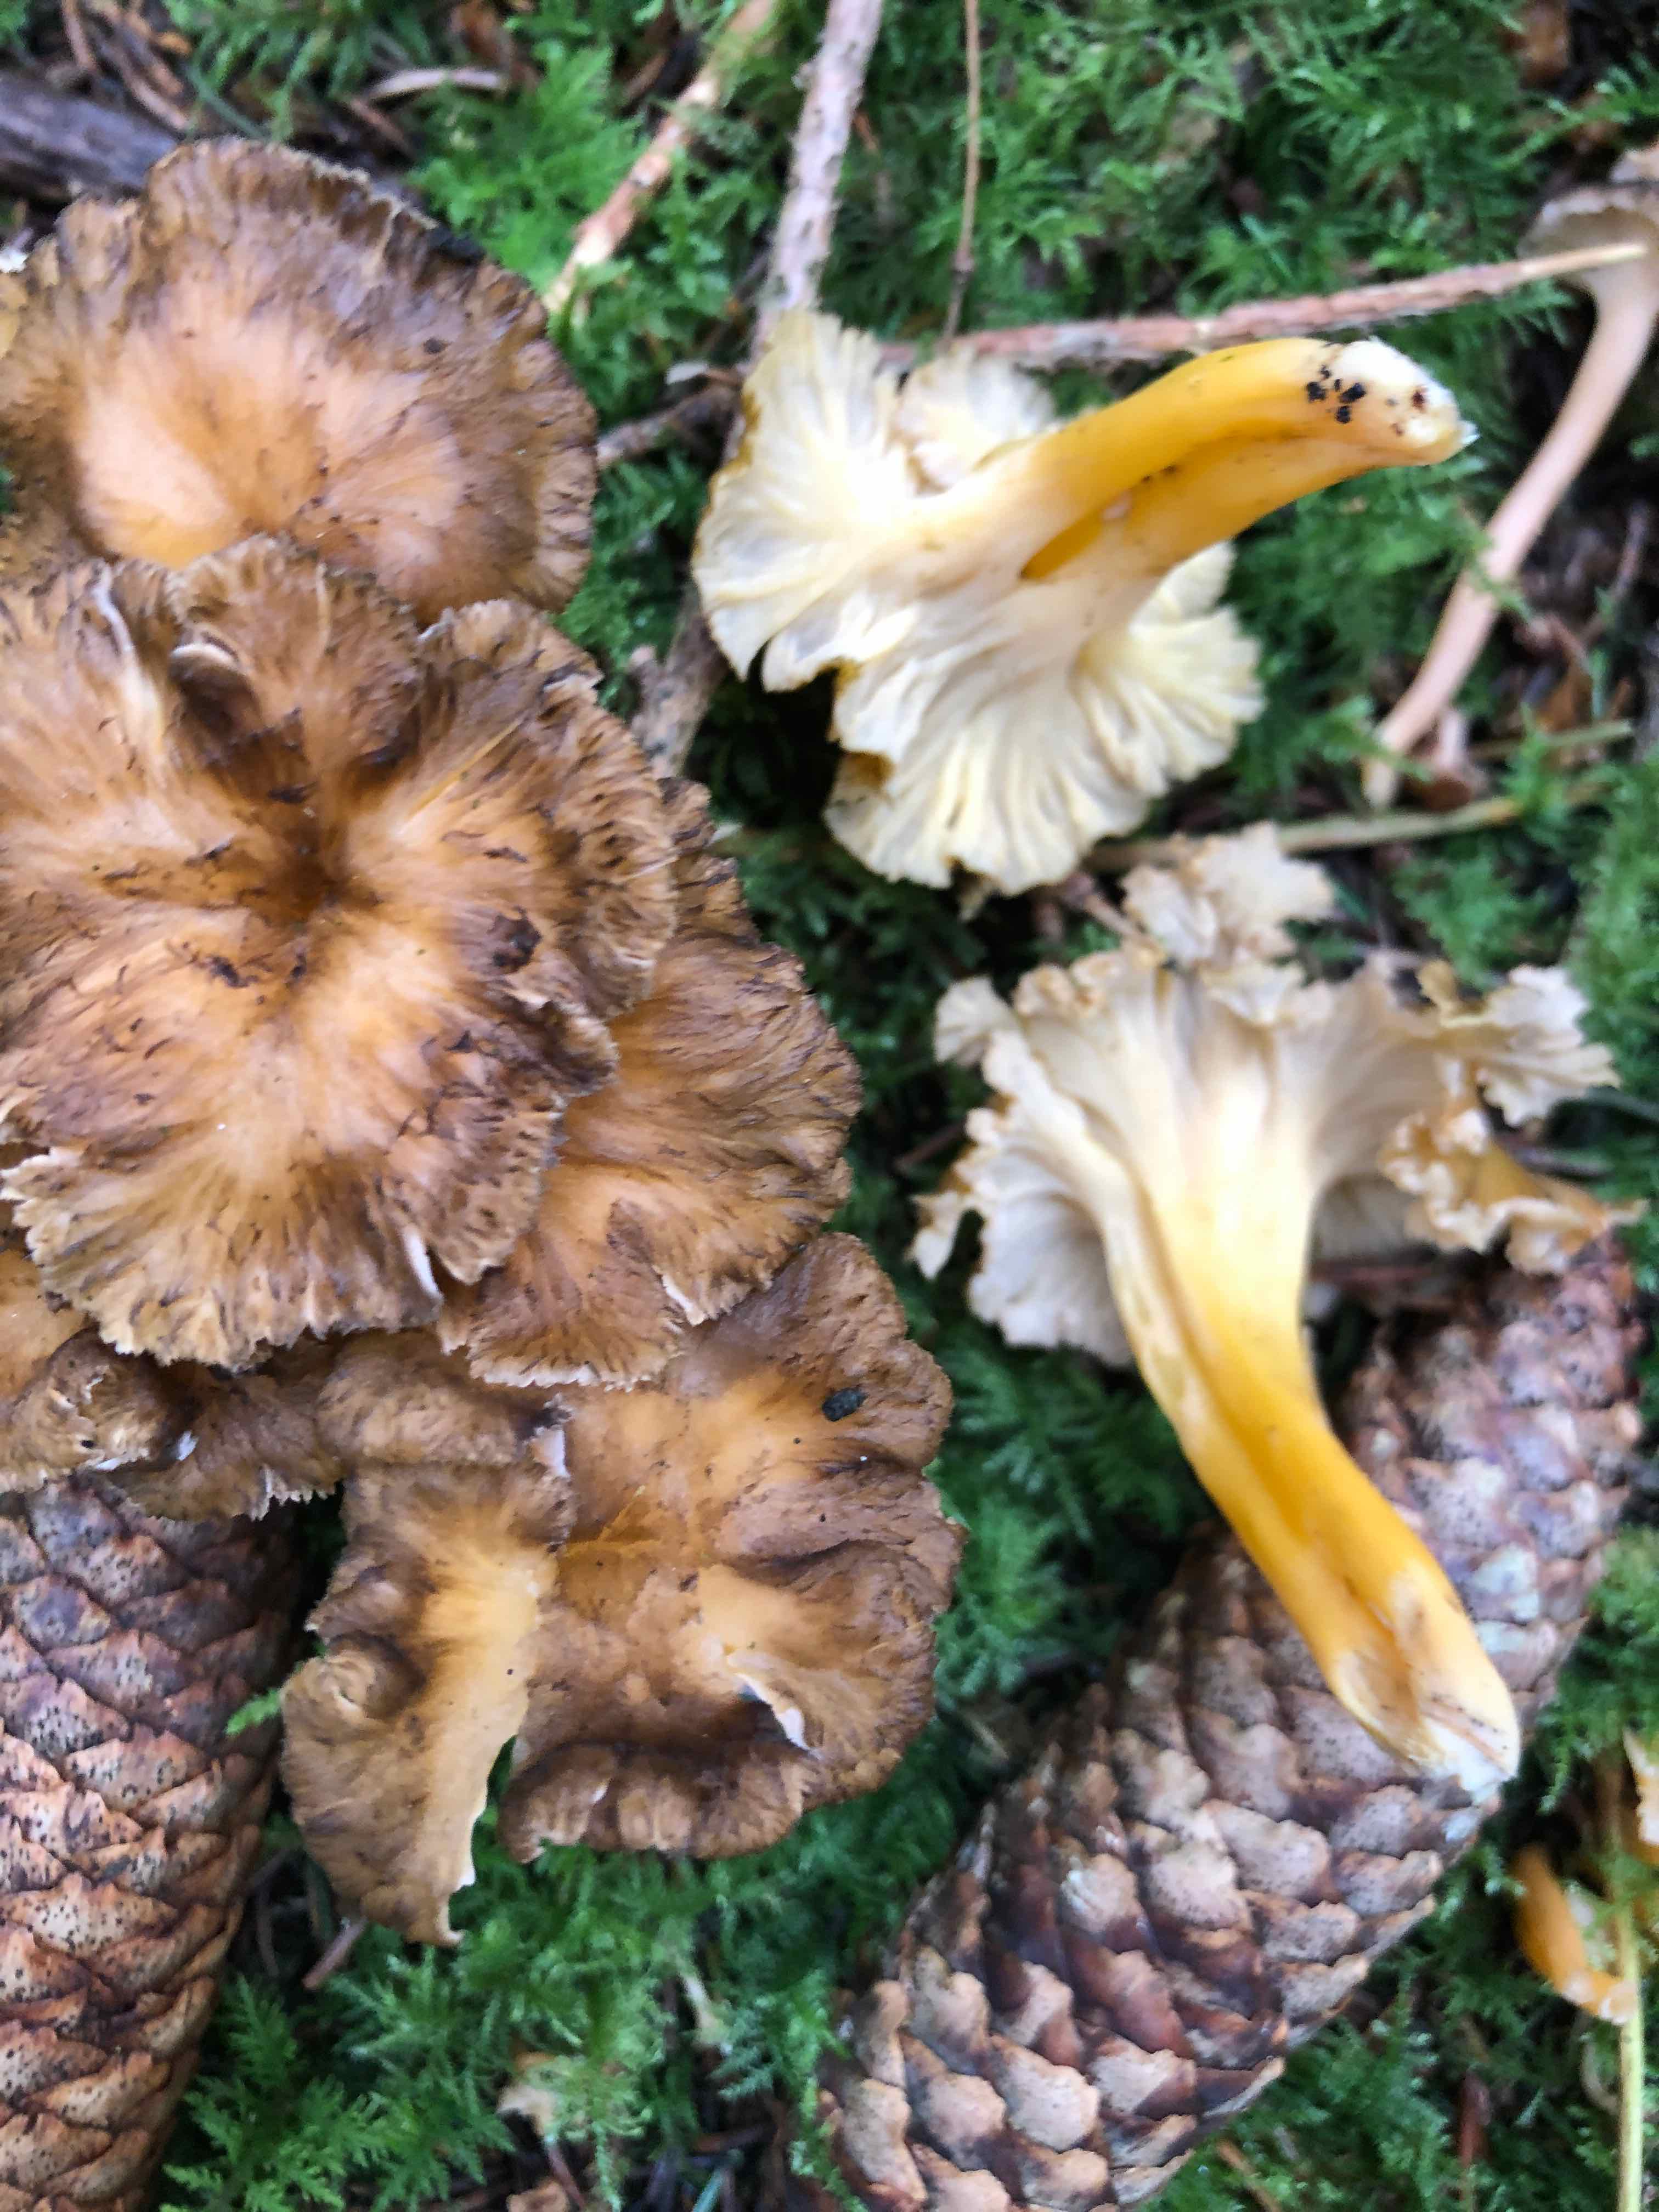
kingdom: Fungi
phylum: Basidiomycota
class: Agaricomycetes
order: Cantharellales
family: Hydnaceae
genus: Craterellus
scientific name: Craterellus lutescens
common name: gylden kantarel
